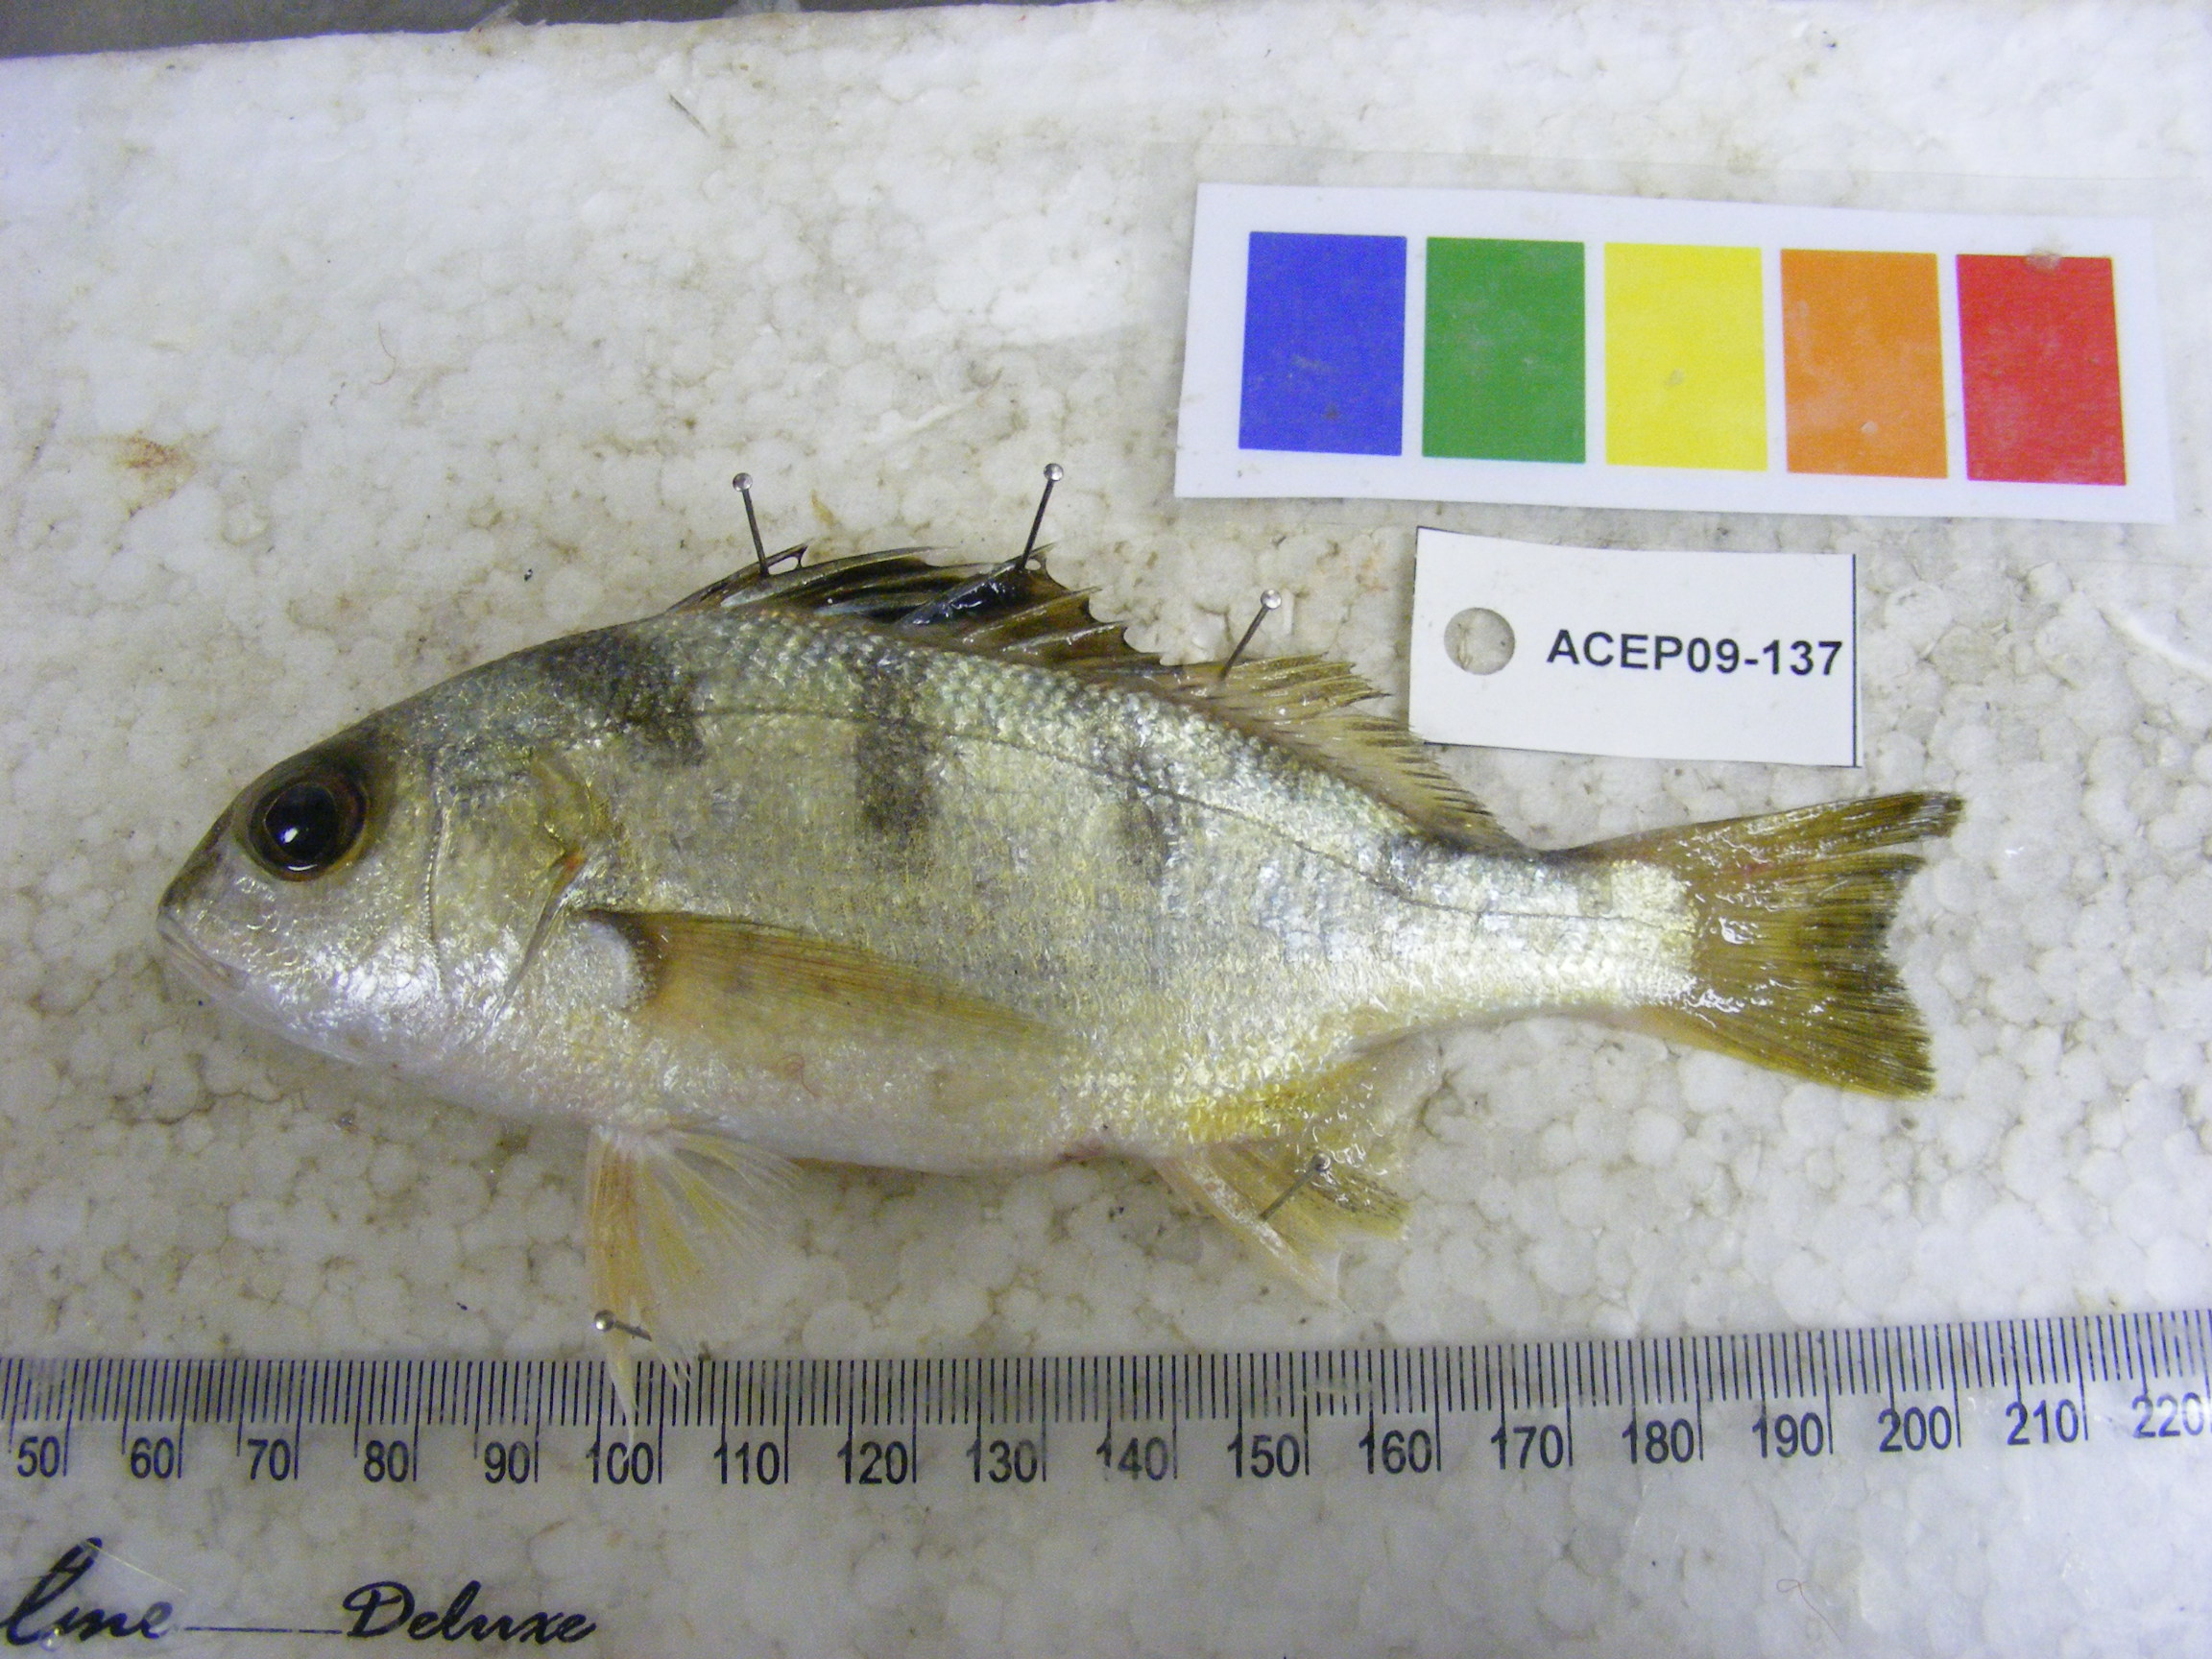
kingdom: Animalia
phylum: Chordata
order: Perciformes
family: Haemulidae
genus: Pomadasys
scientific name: Pomadasys maculatus
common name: Saddle grunt
